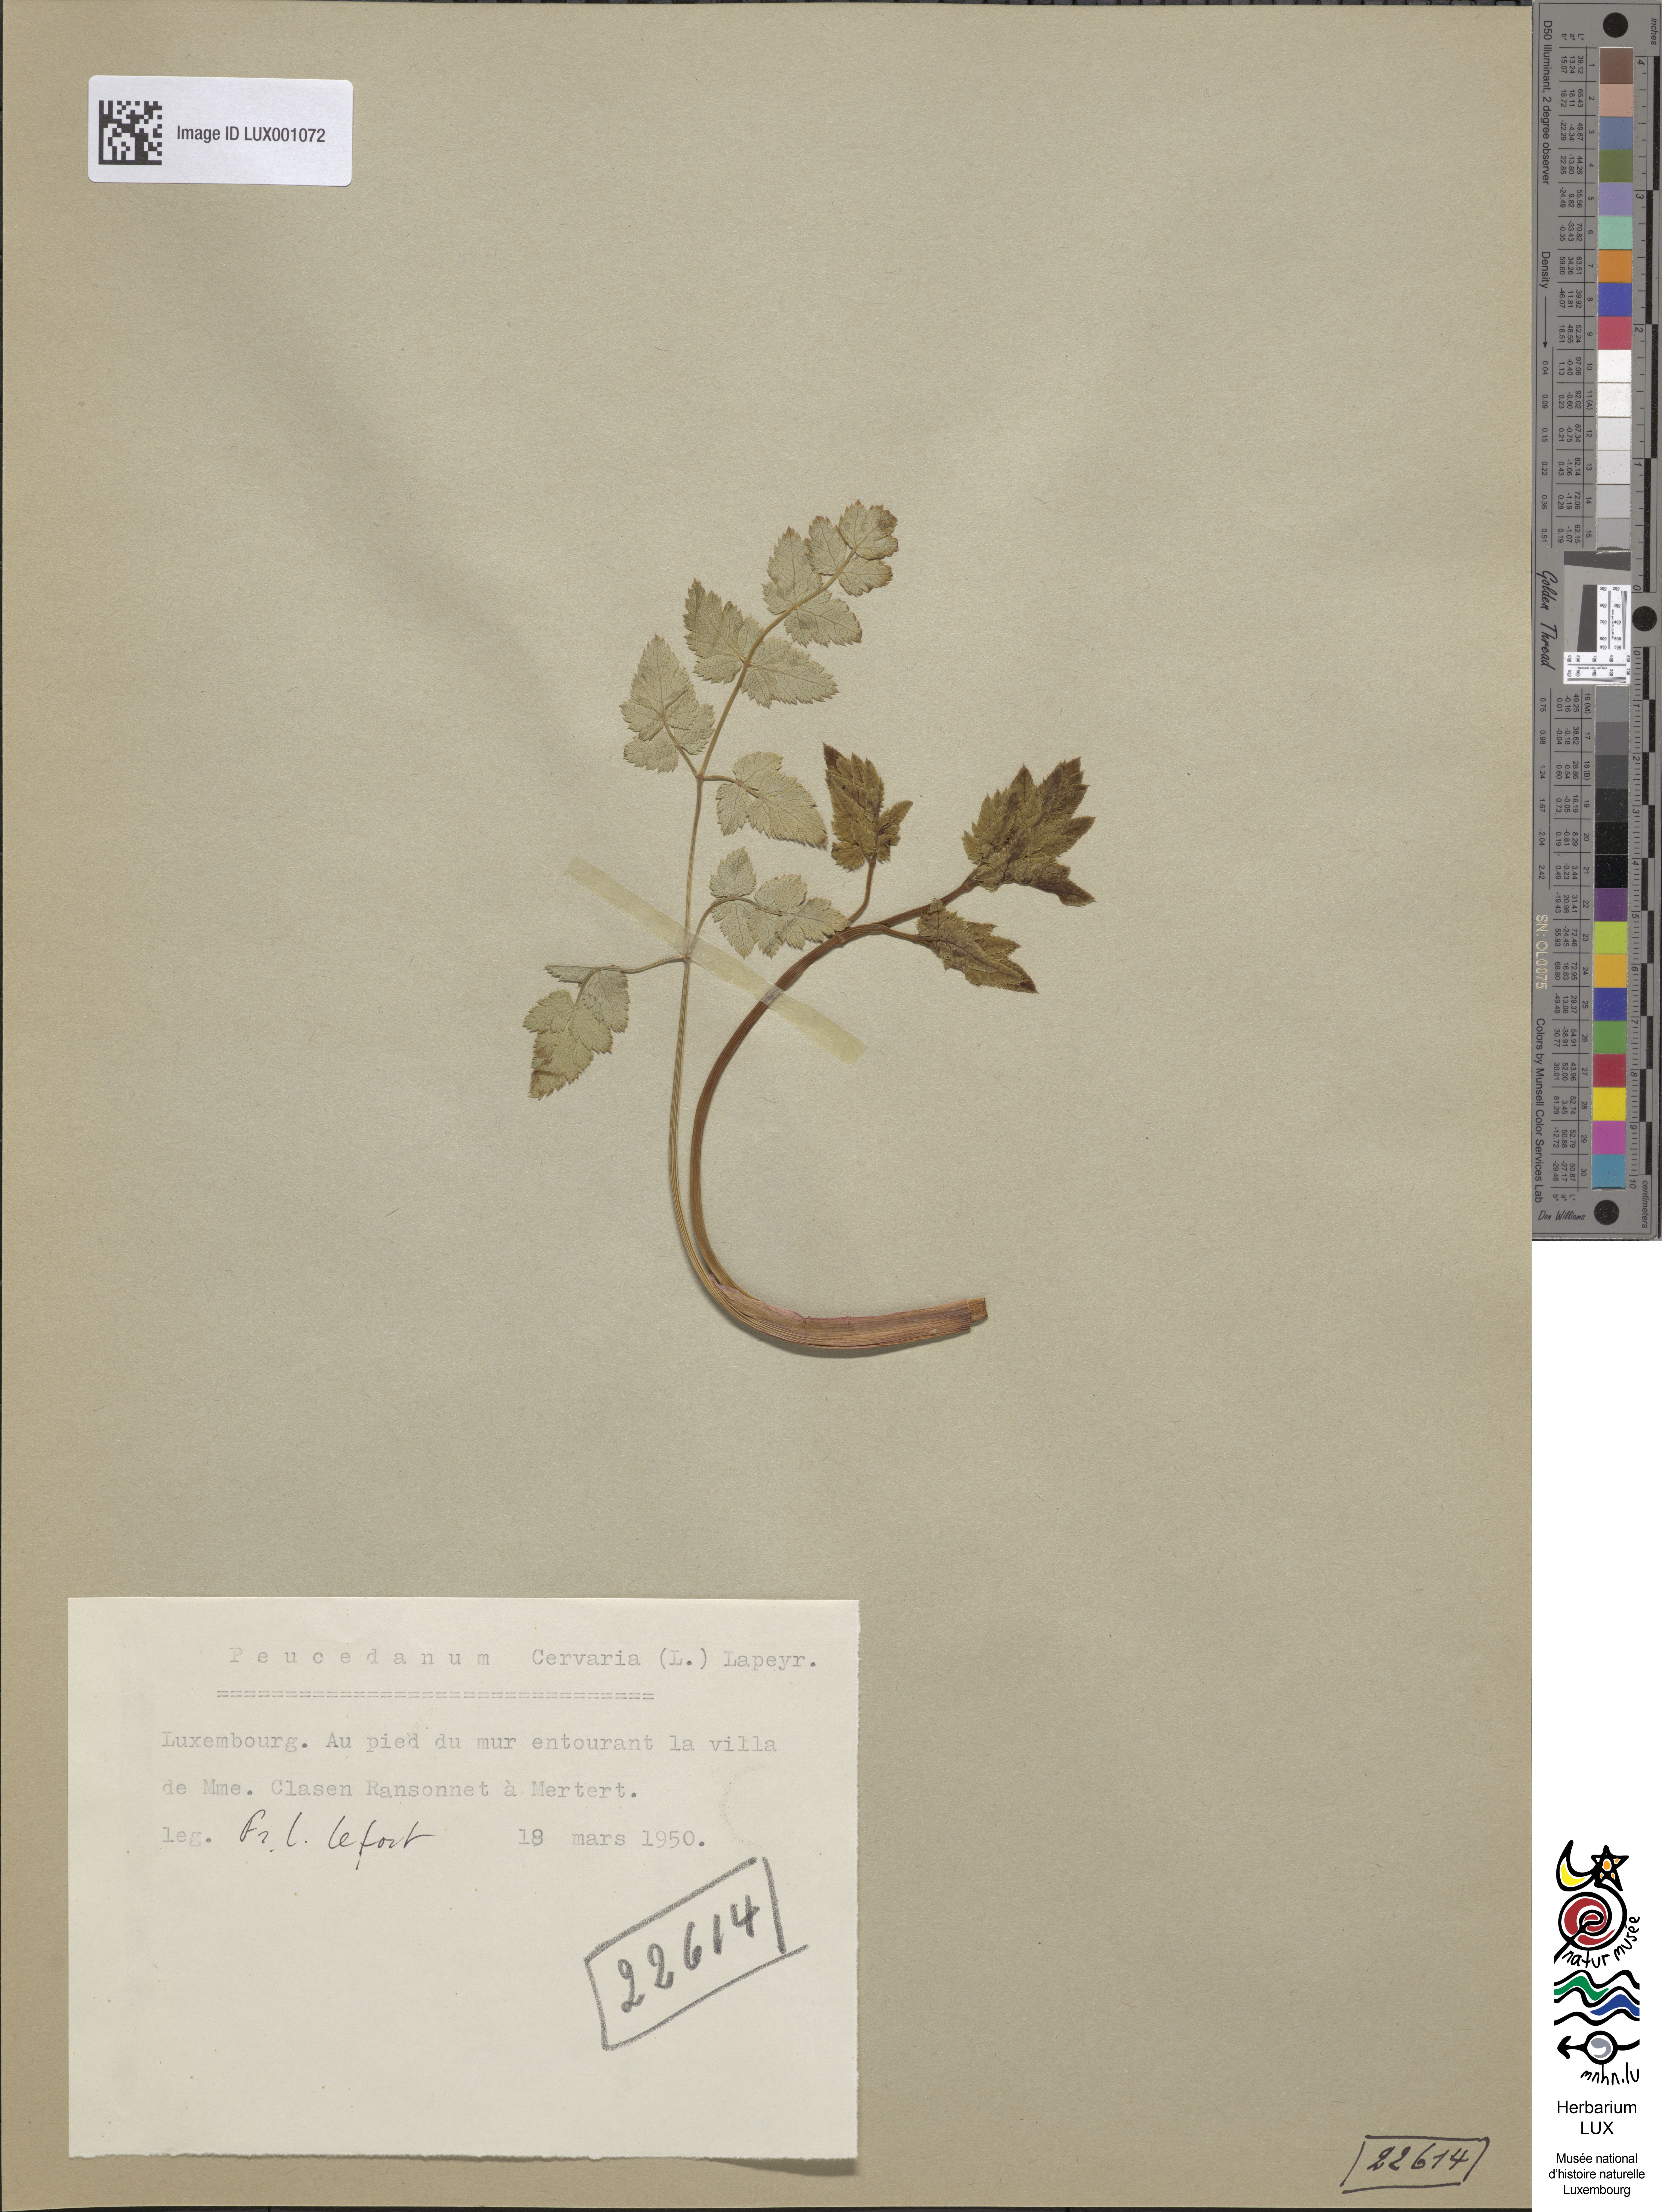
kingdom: Plantae
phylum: Tracheophyta
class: Magnoliopsida
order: Apiales
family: Apiaceae
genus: Cervaria
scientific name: Cervaria rivini
